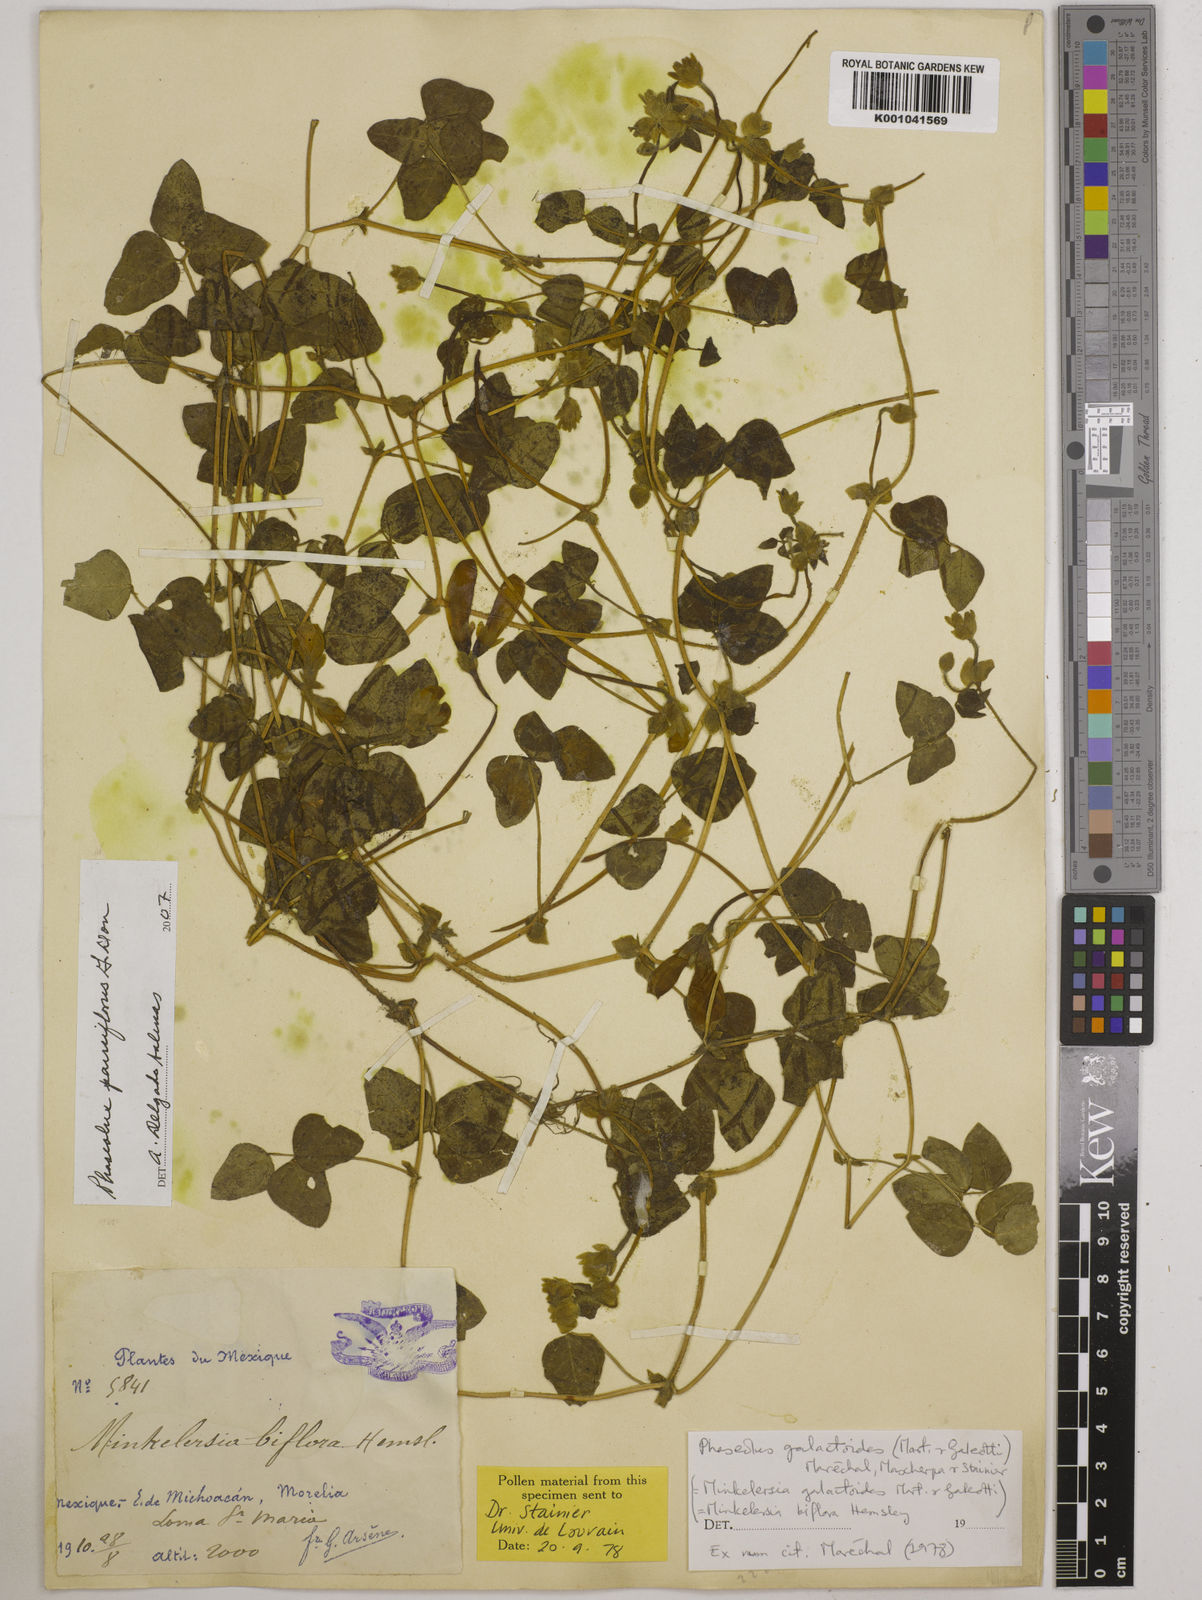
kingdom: Plantae
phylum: Tracheophyta
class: Magnoliopsida
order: Fabales
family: Fabaceae
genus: Phaseolus
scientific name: Phaseolus
